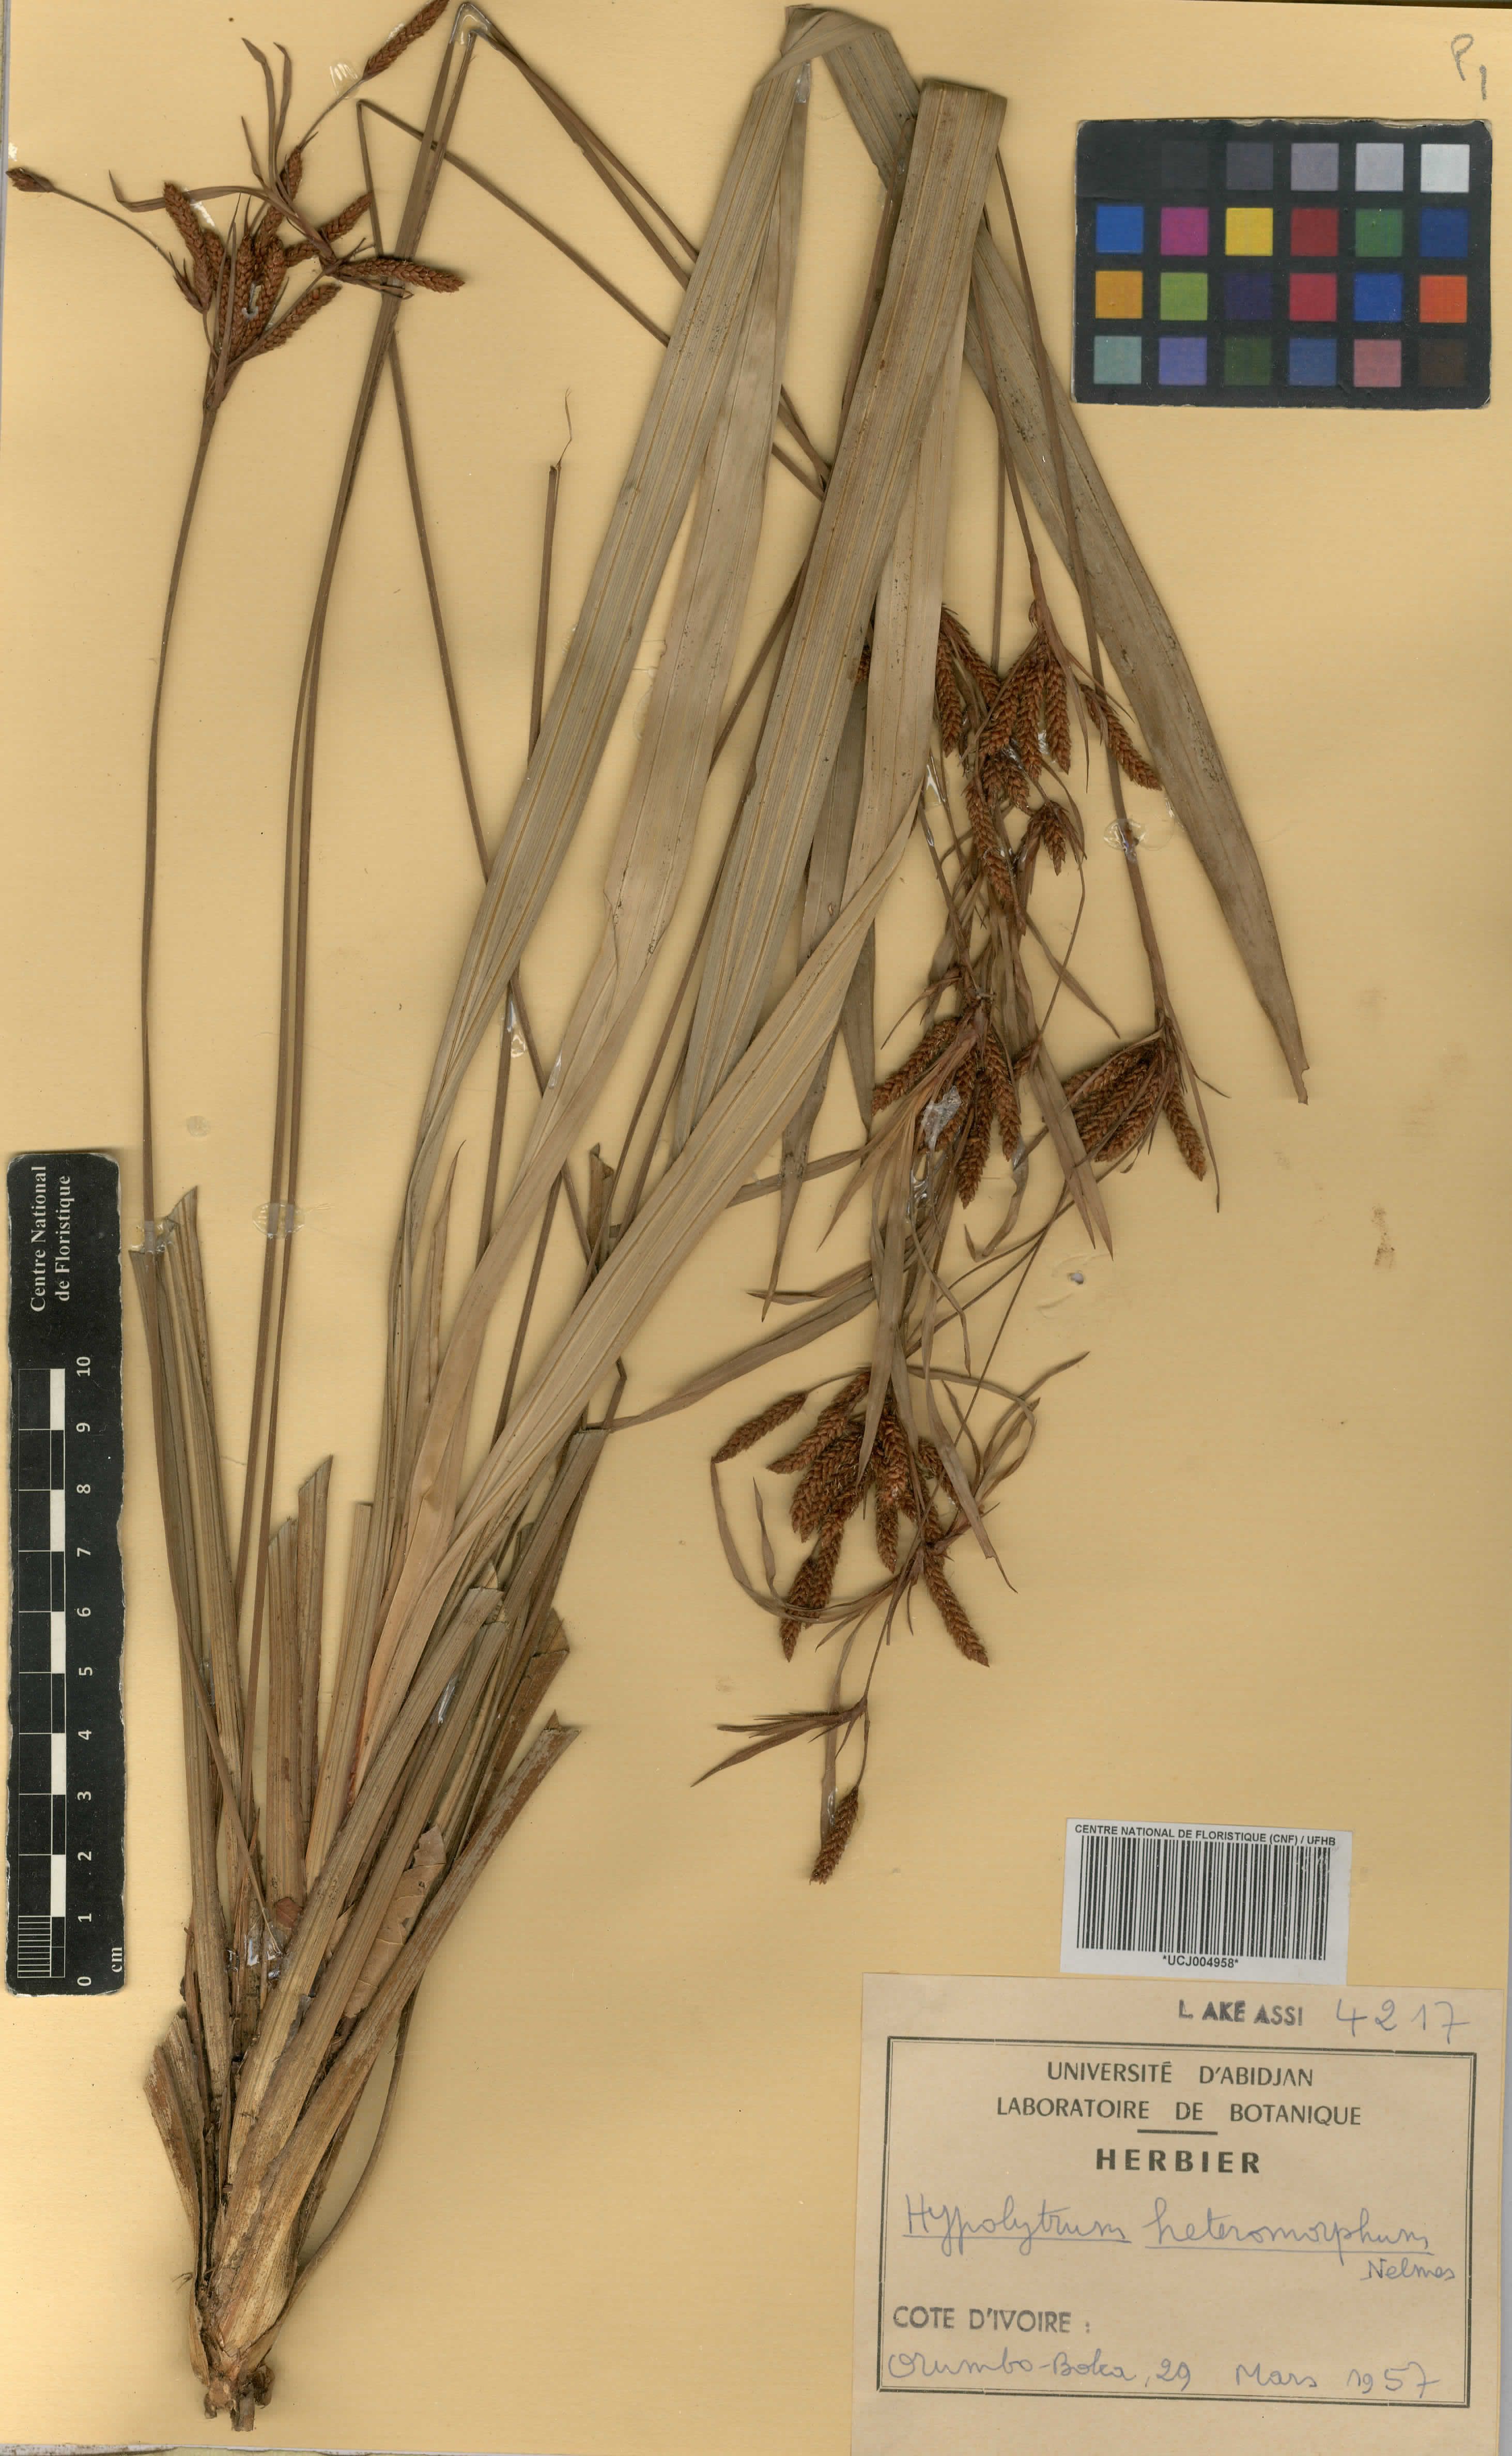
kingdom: Plantae
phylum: Tracheophyta
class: Liliopsida
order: Poales
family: Cyperaceae
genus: Hypolytrum
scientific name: Hypolytrum heteromorphum
